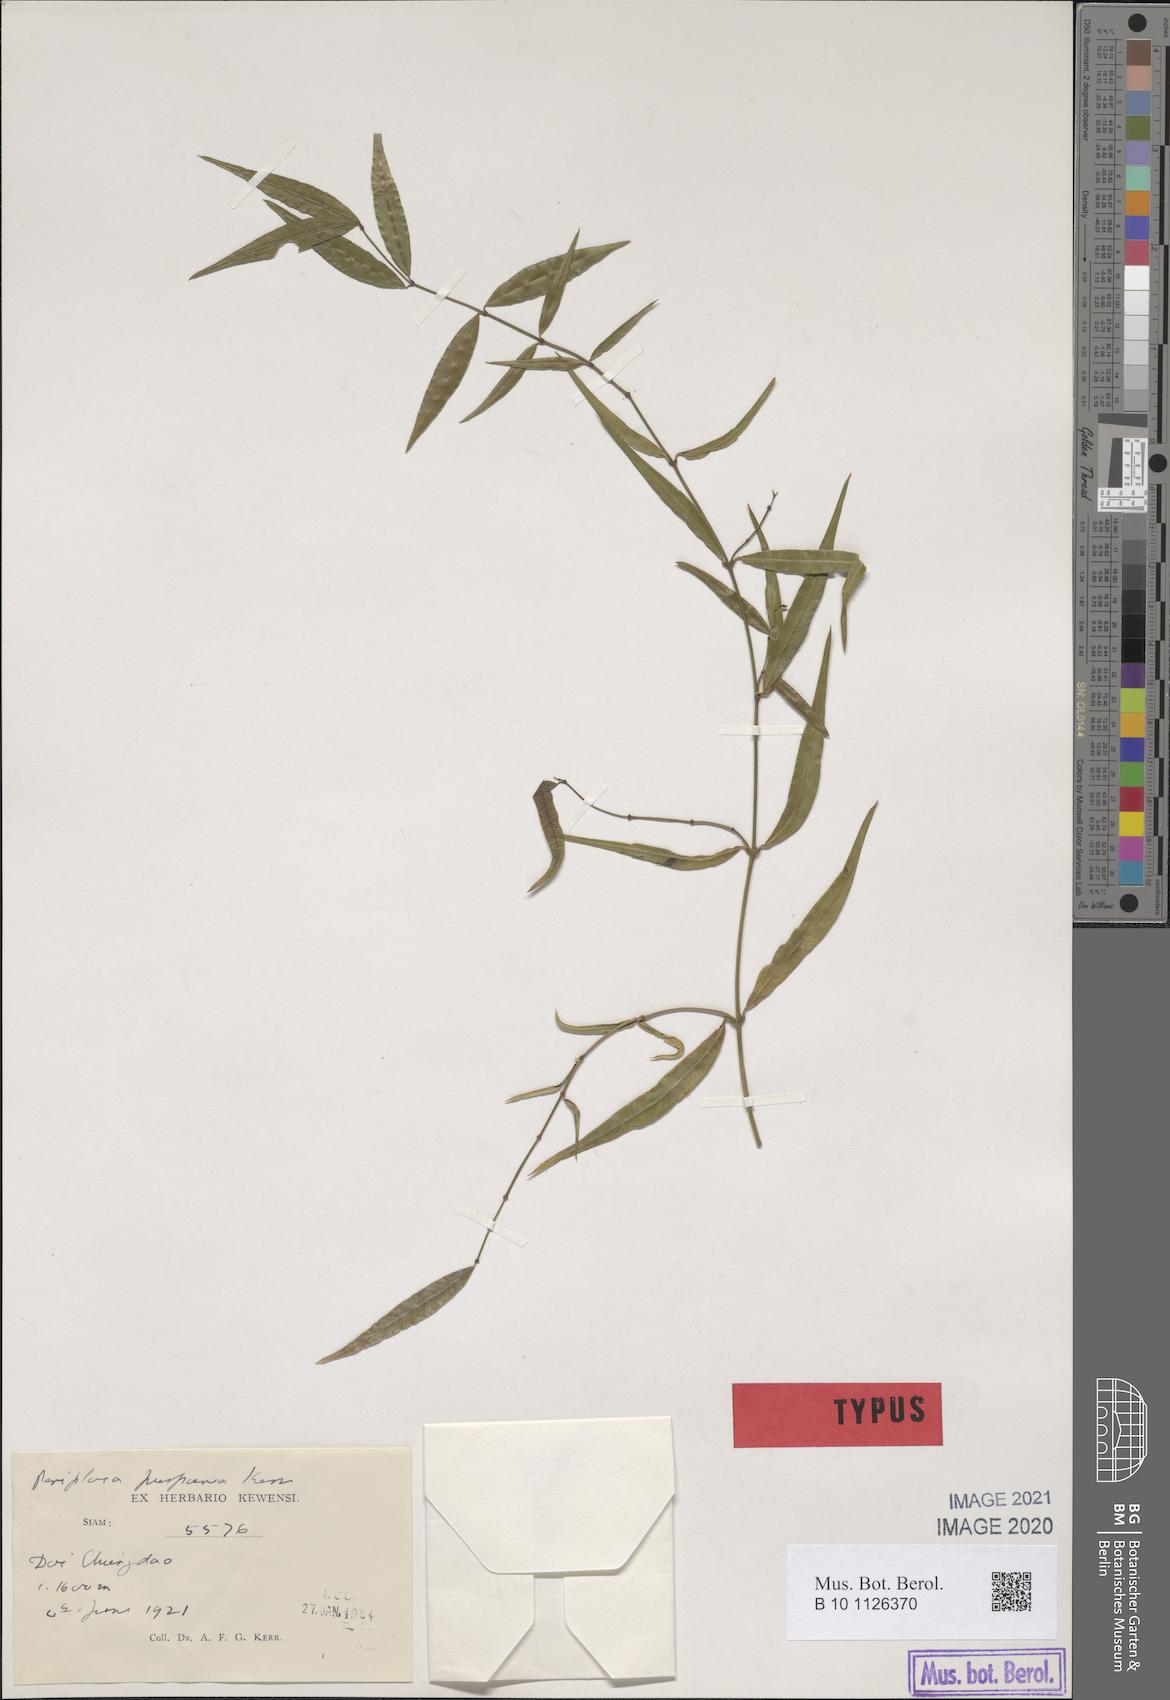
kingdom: Plantae
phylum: Tracheophyta
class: Magnoliopsida
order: Gentianales
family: Apocynaceae
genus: Periploca
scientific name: Periploca purpurea
